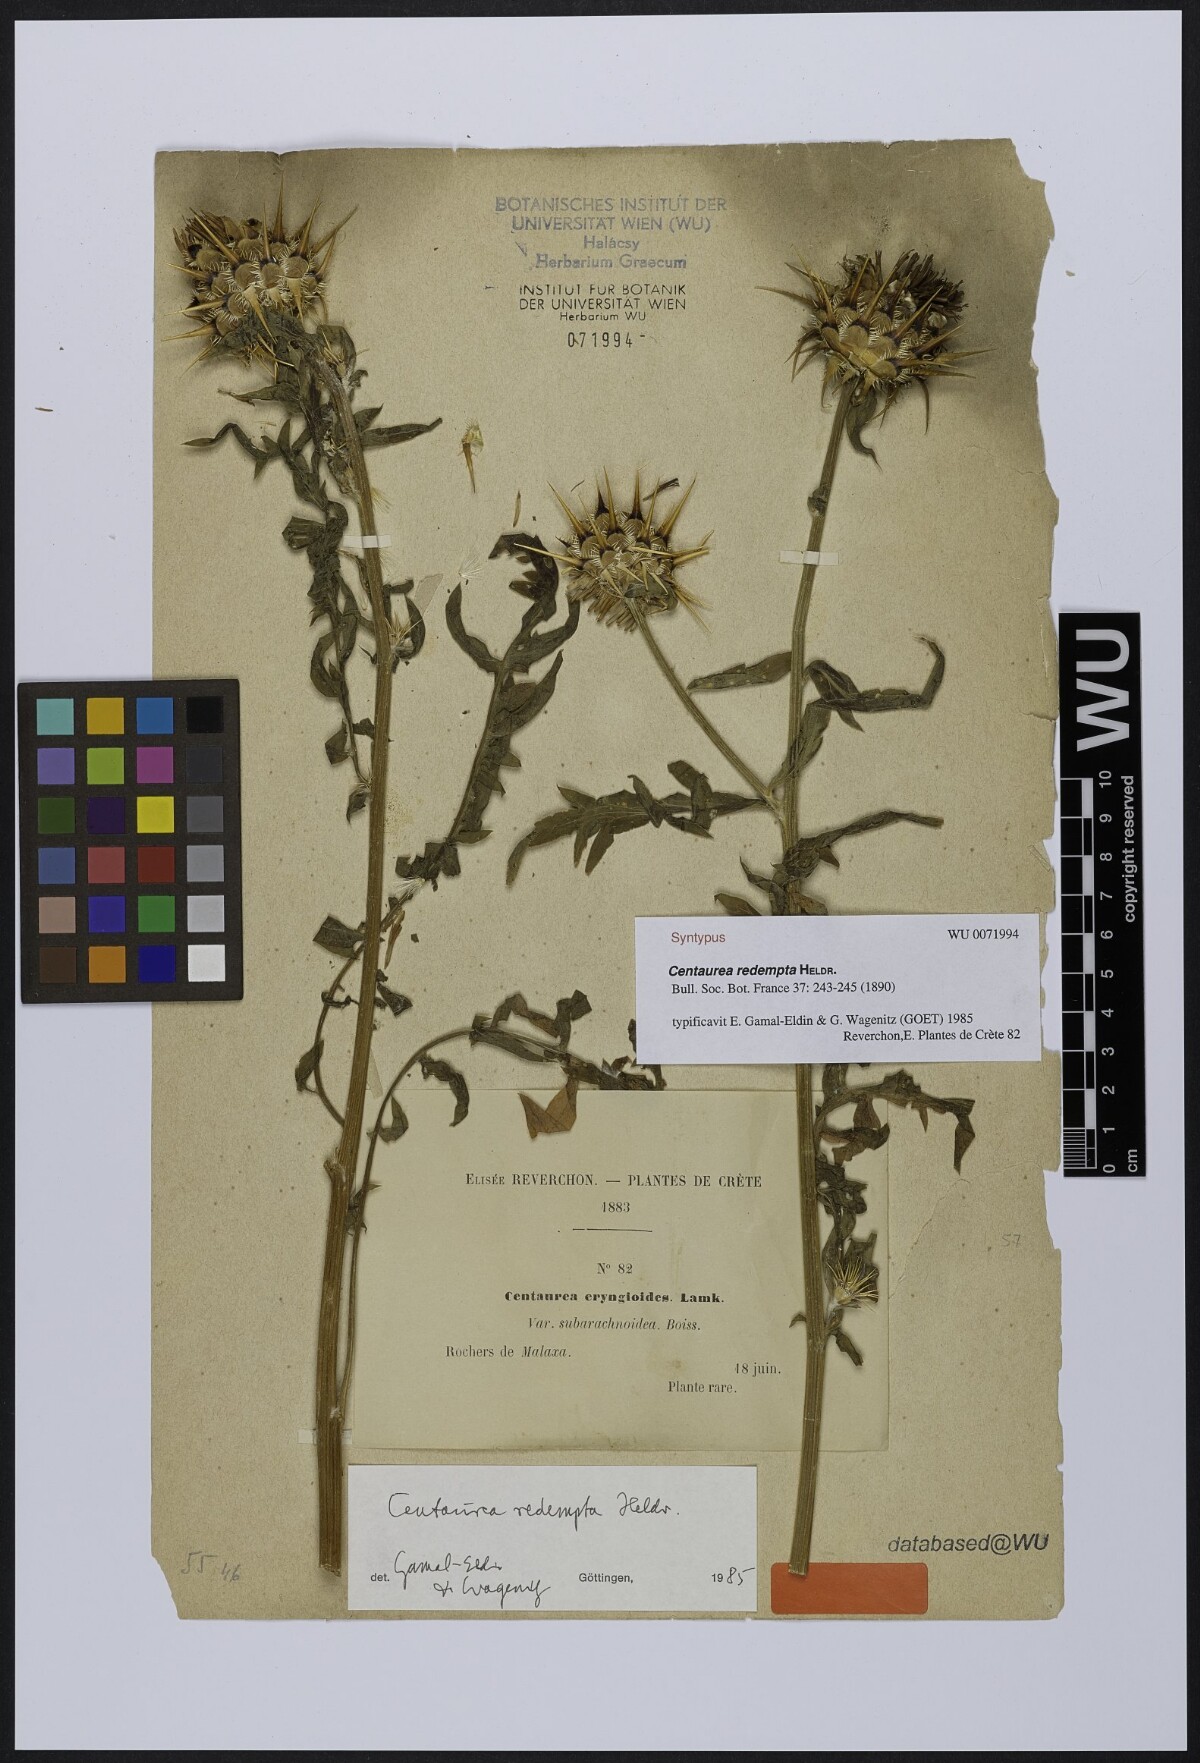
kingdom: Plantae
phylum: Tracheophyta
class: Magnoliopsida
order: Asterales
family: Asteraceae
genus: Centaurea
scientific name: Centaurea redempta
